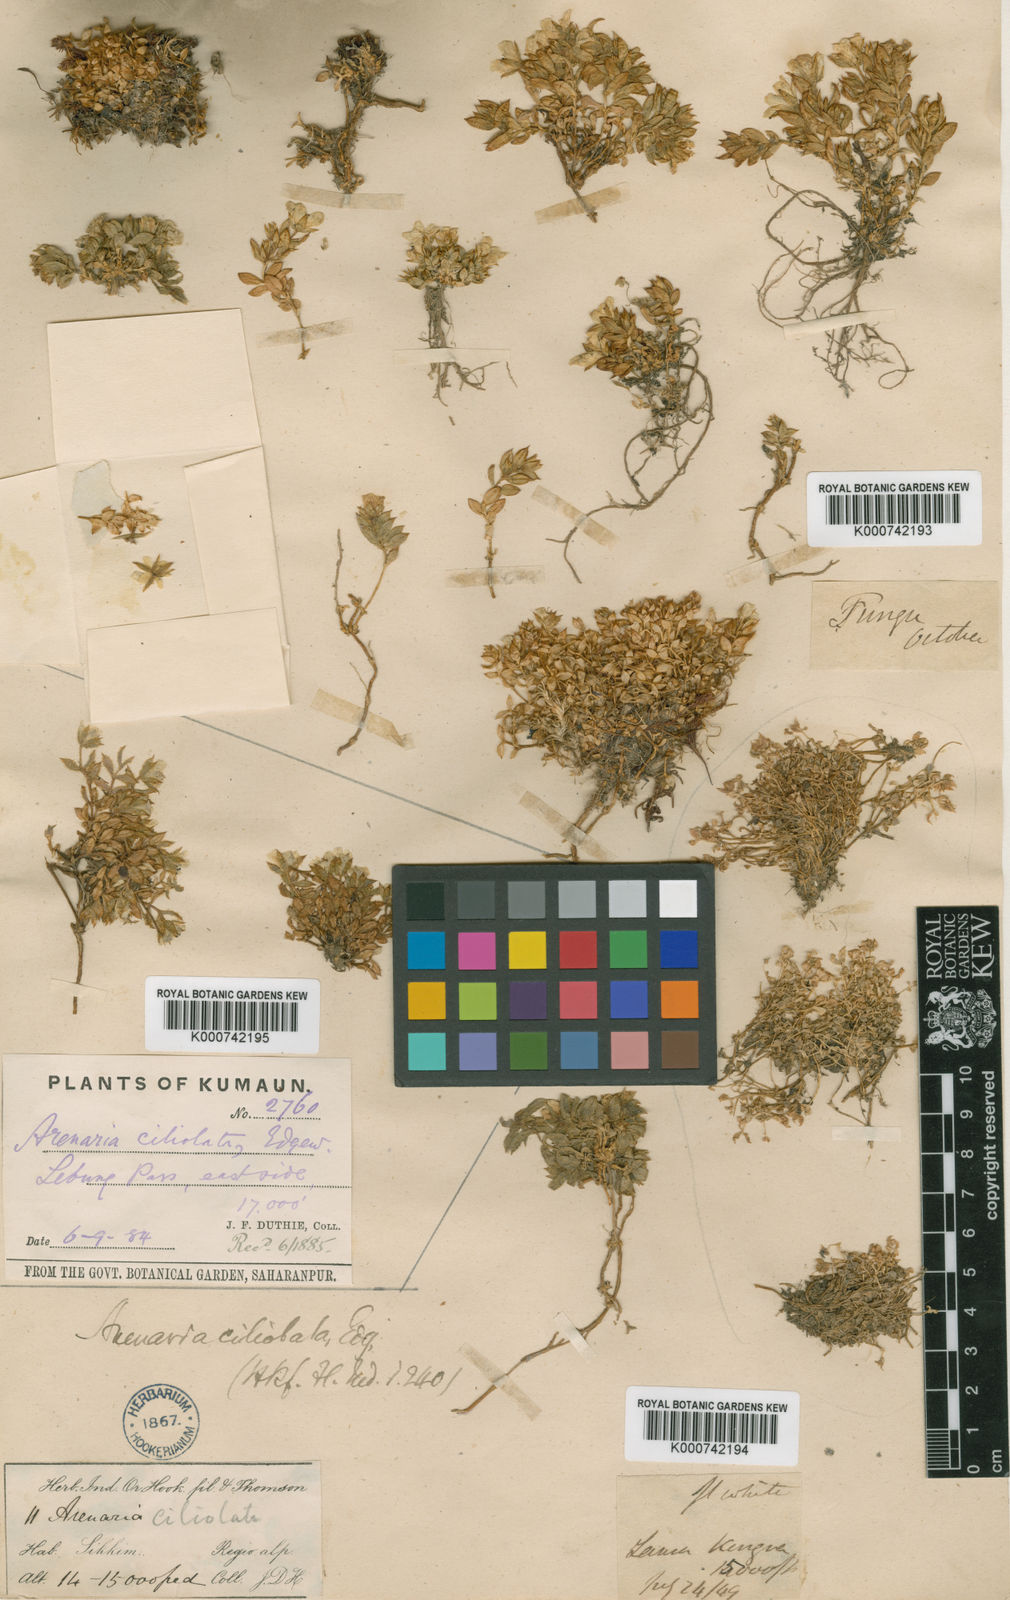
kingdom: Plantae
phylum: Tracheophyta
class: Magnoliopsida
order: Caryophyllales
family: Caryophyllaceae
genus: Shivparvatia
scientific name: Shivparvatia ciliolata
